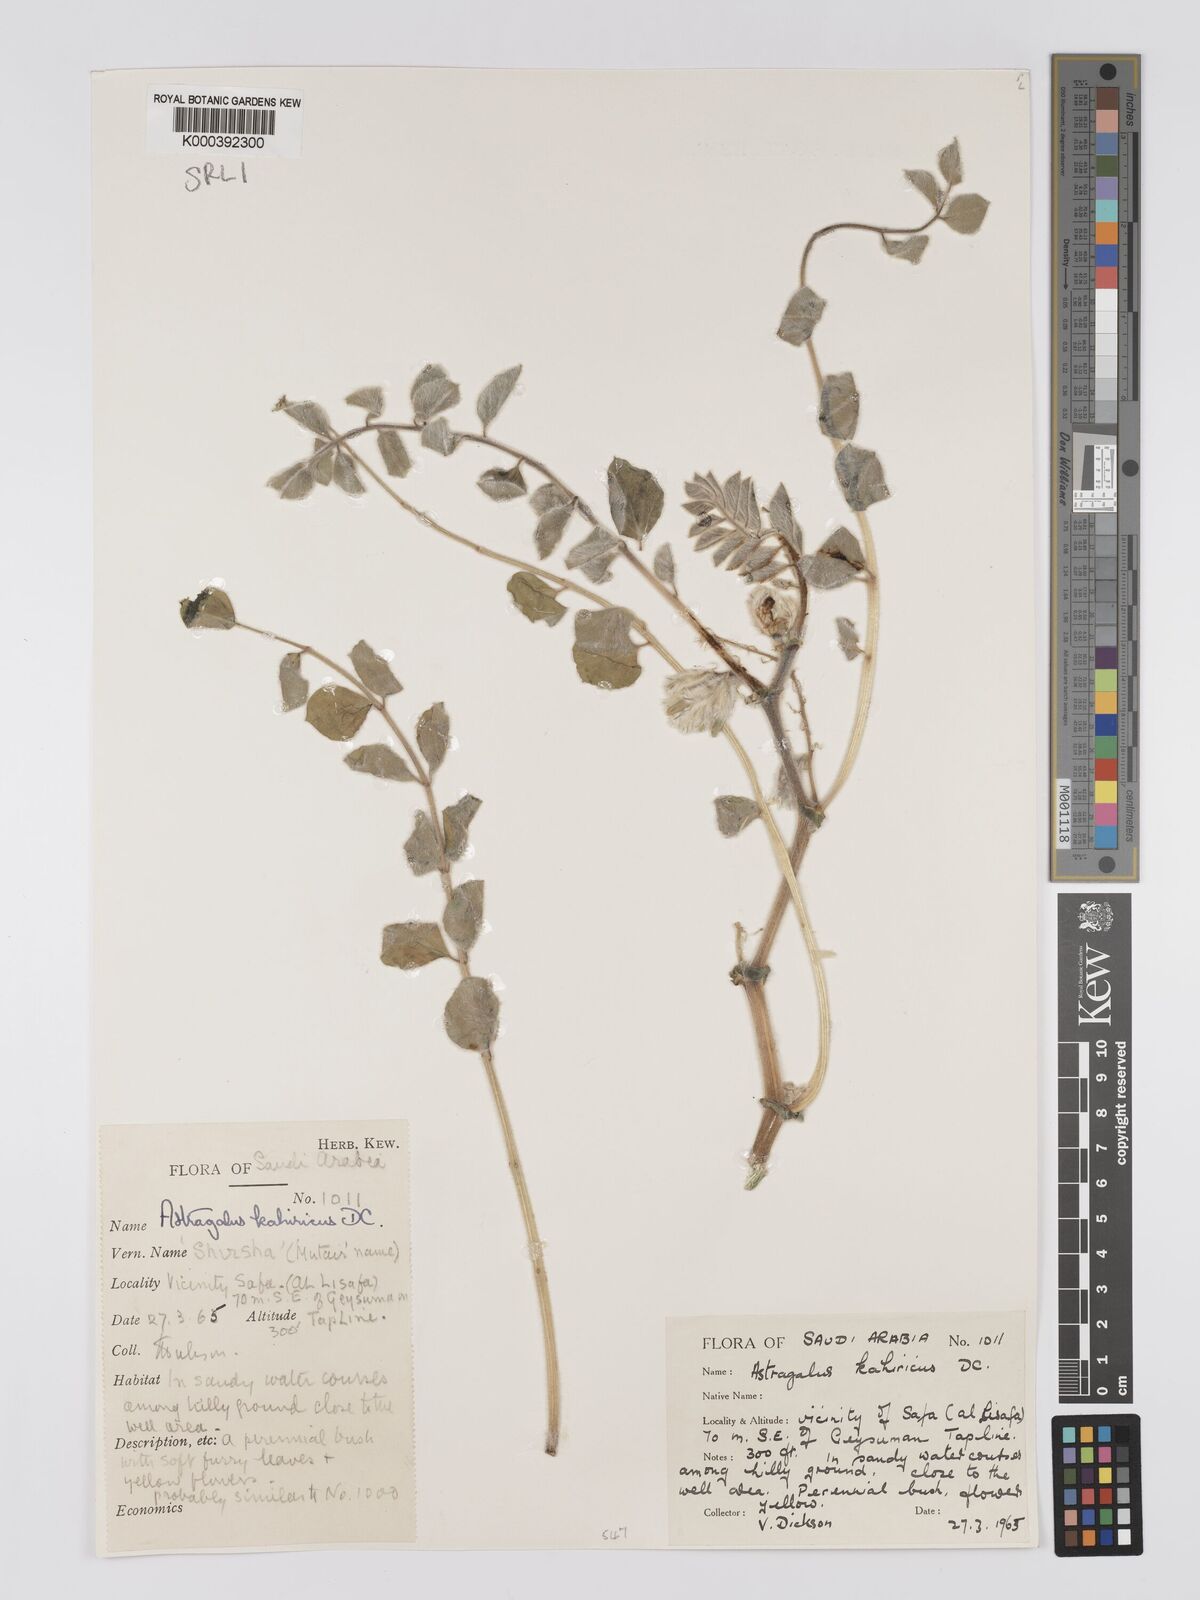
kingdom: Plantae
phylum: Tracheophyta
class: Magnoliopsida
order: Fabales
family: Fabaceae
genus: Astragalus
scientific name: Astragalus kahiricus
